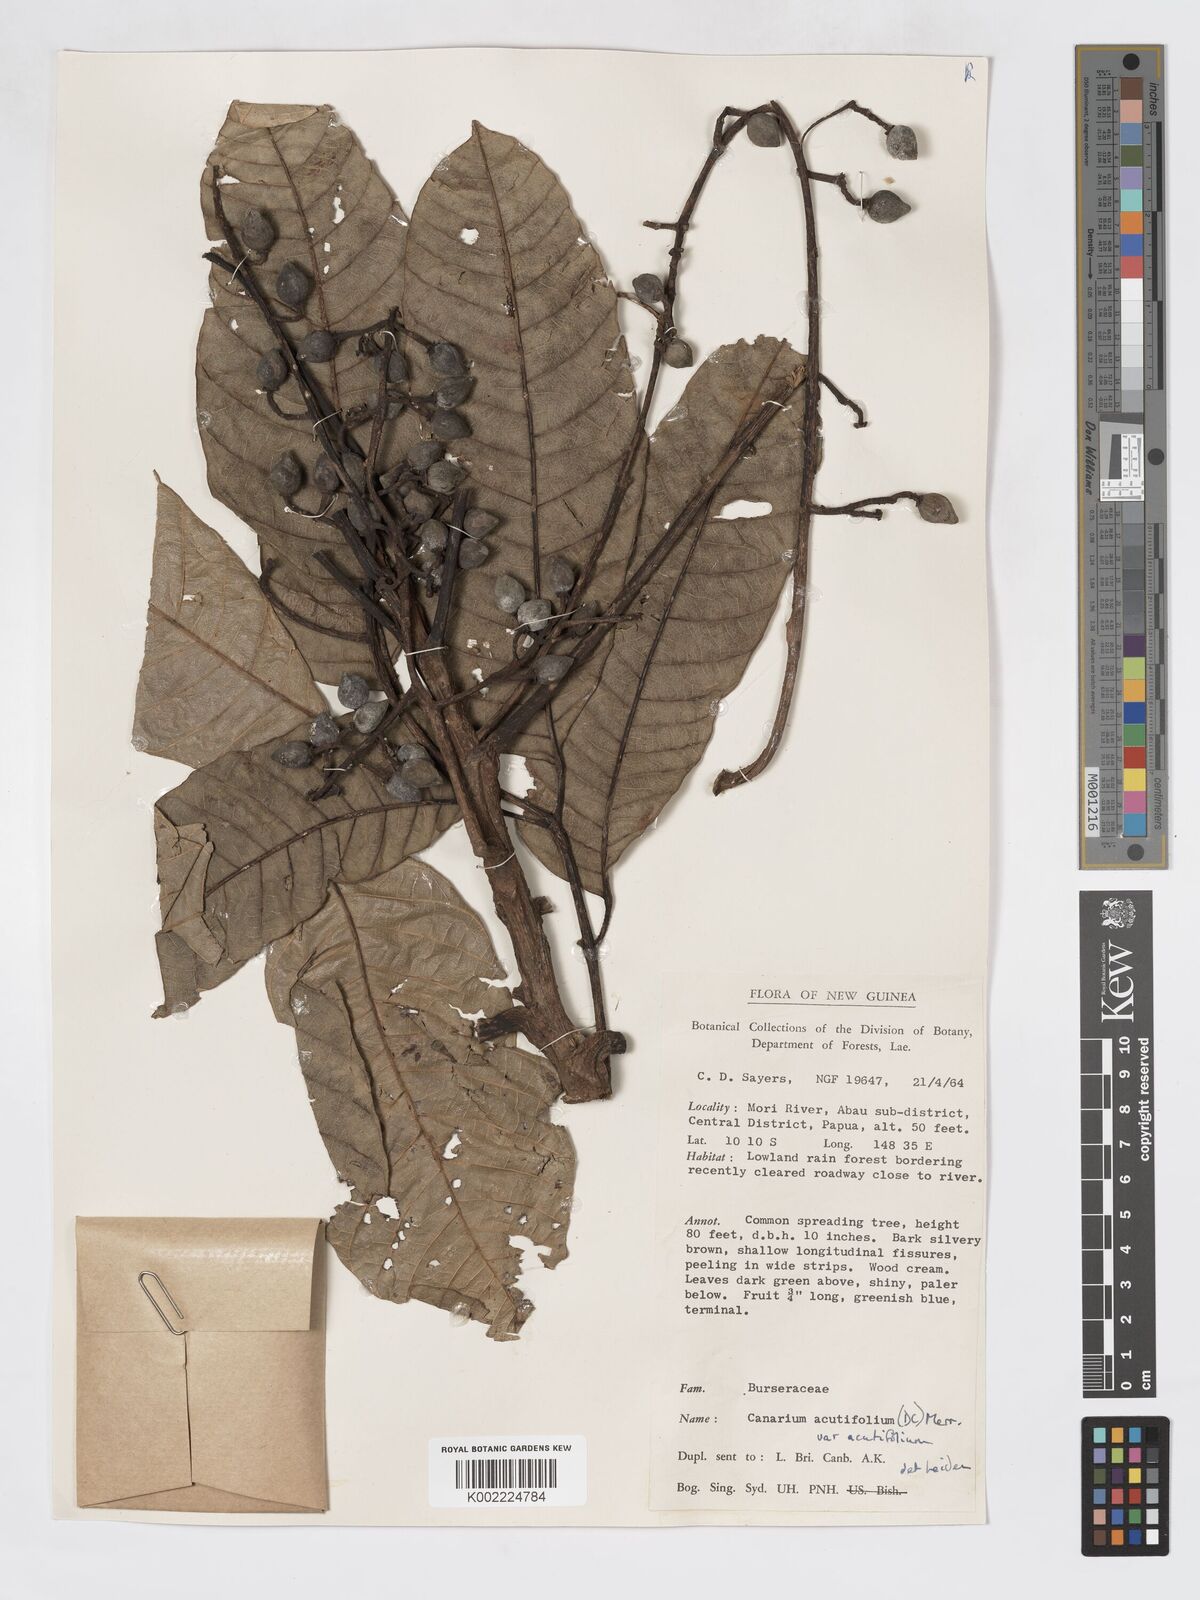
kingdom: Plantae
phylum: Tracheophyta
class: Magnoliopsida
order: Sapindales
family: Burseraceae
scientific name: Burseraceae
